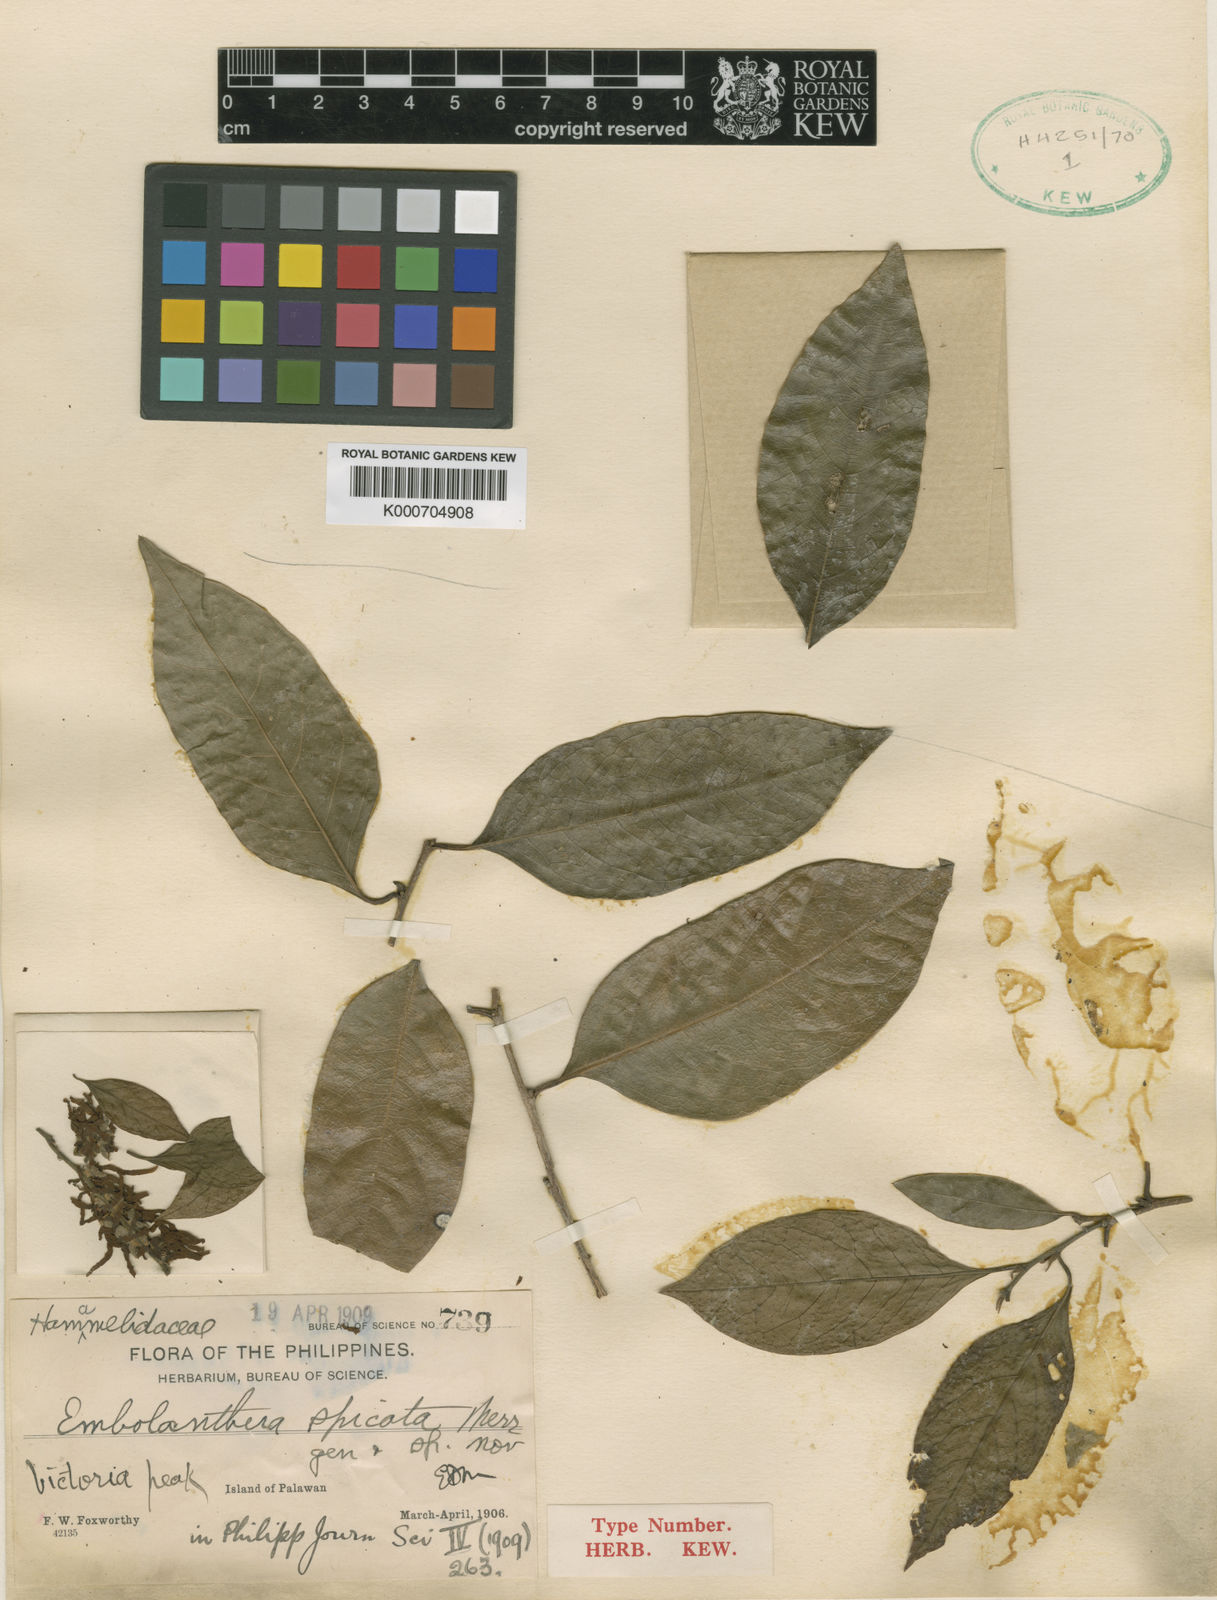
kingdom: Plantae
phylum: Tracheophyta
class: Magnoliopsida
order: Saxifragales
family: Hamamelidaceae
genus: Embolanthera
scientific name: Embolanthera spicata
